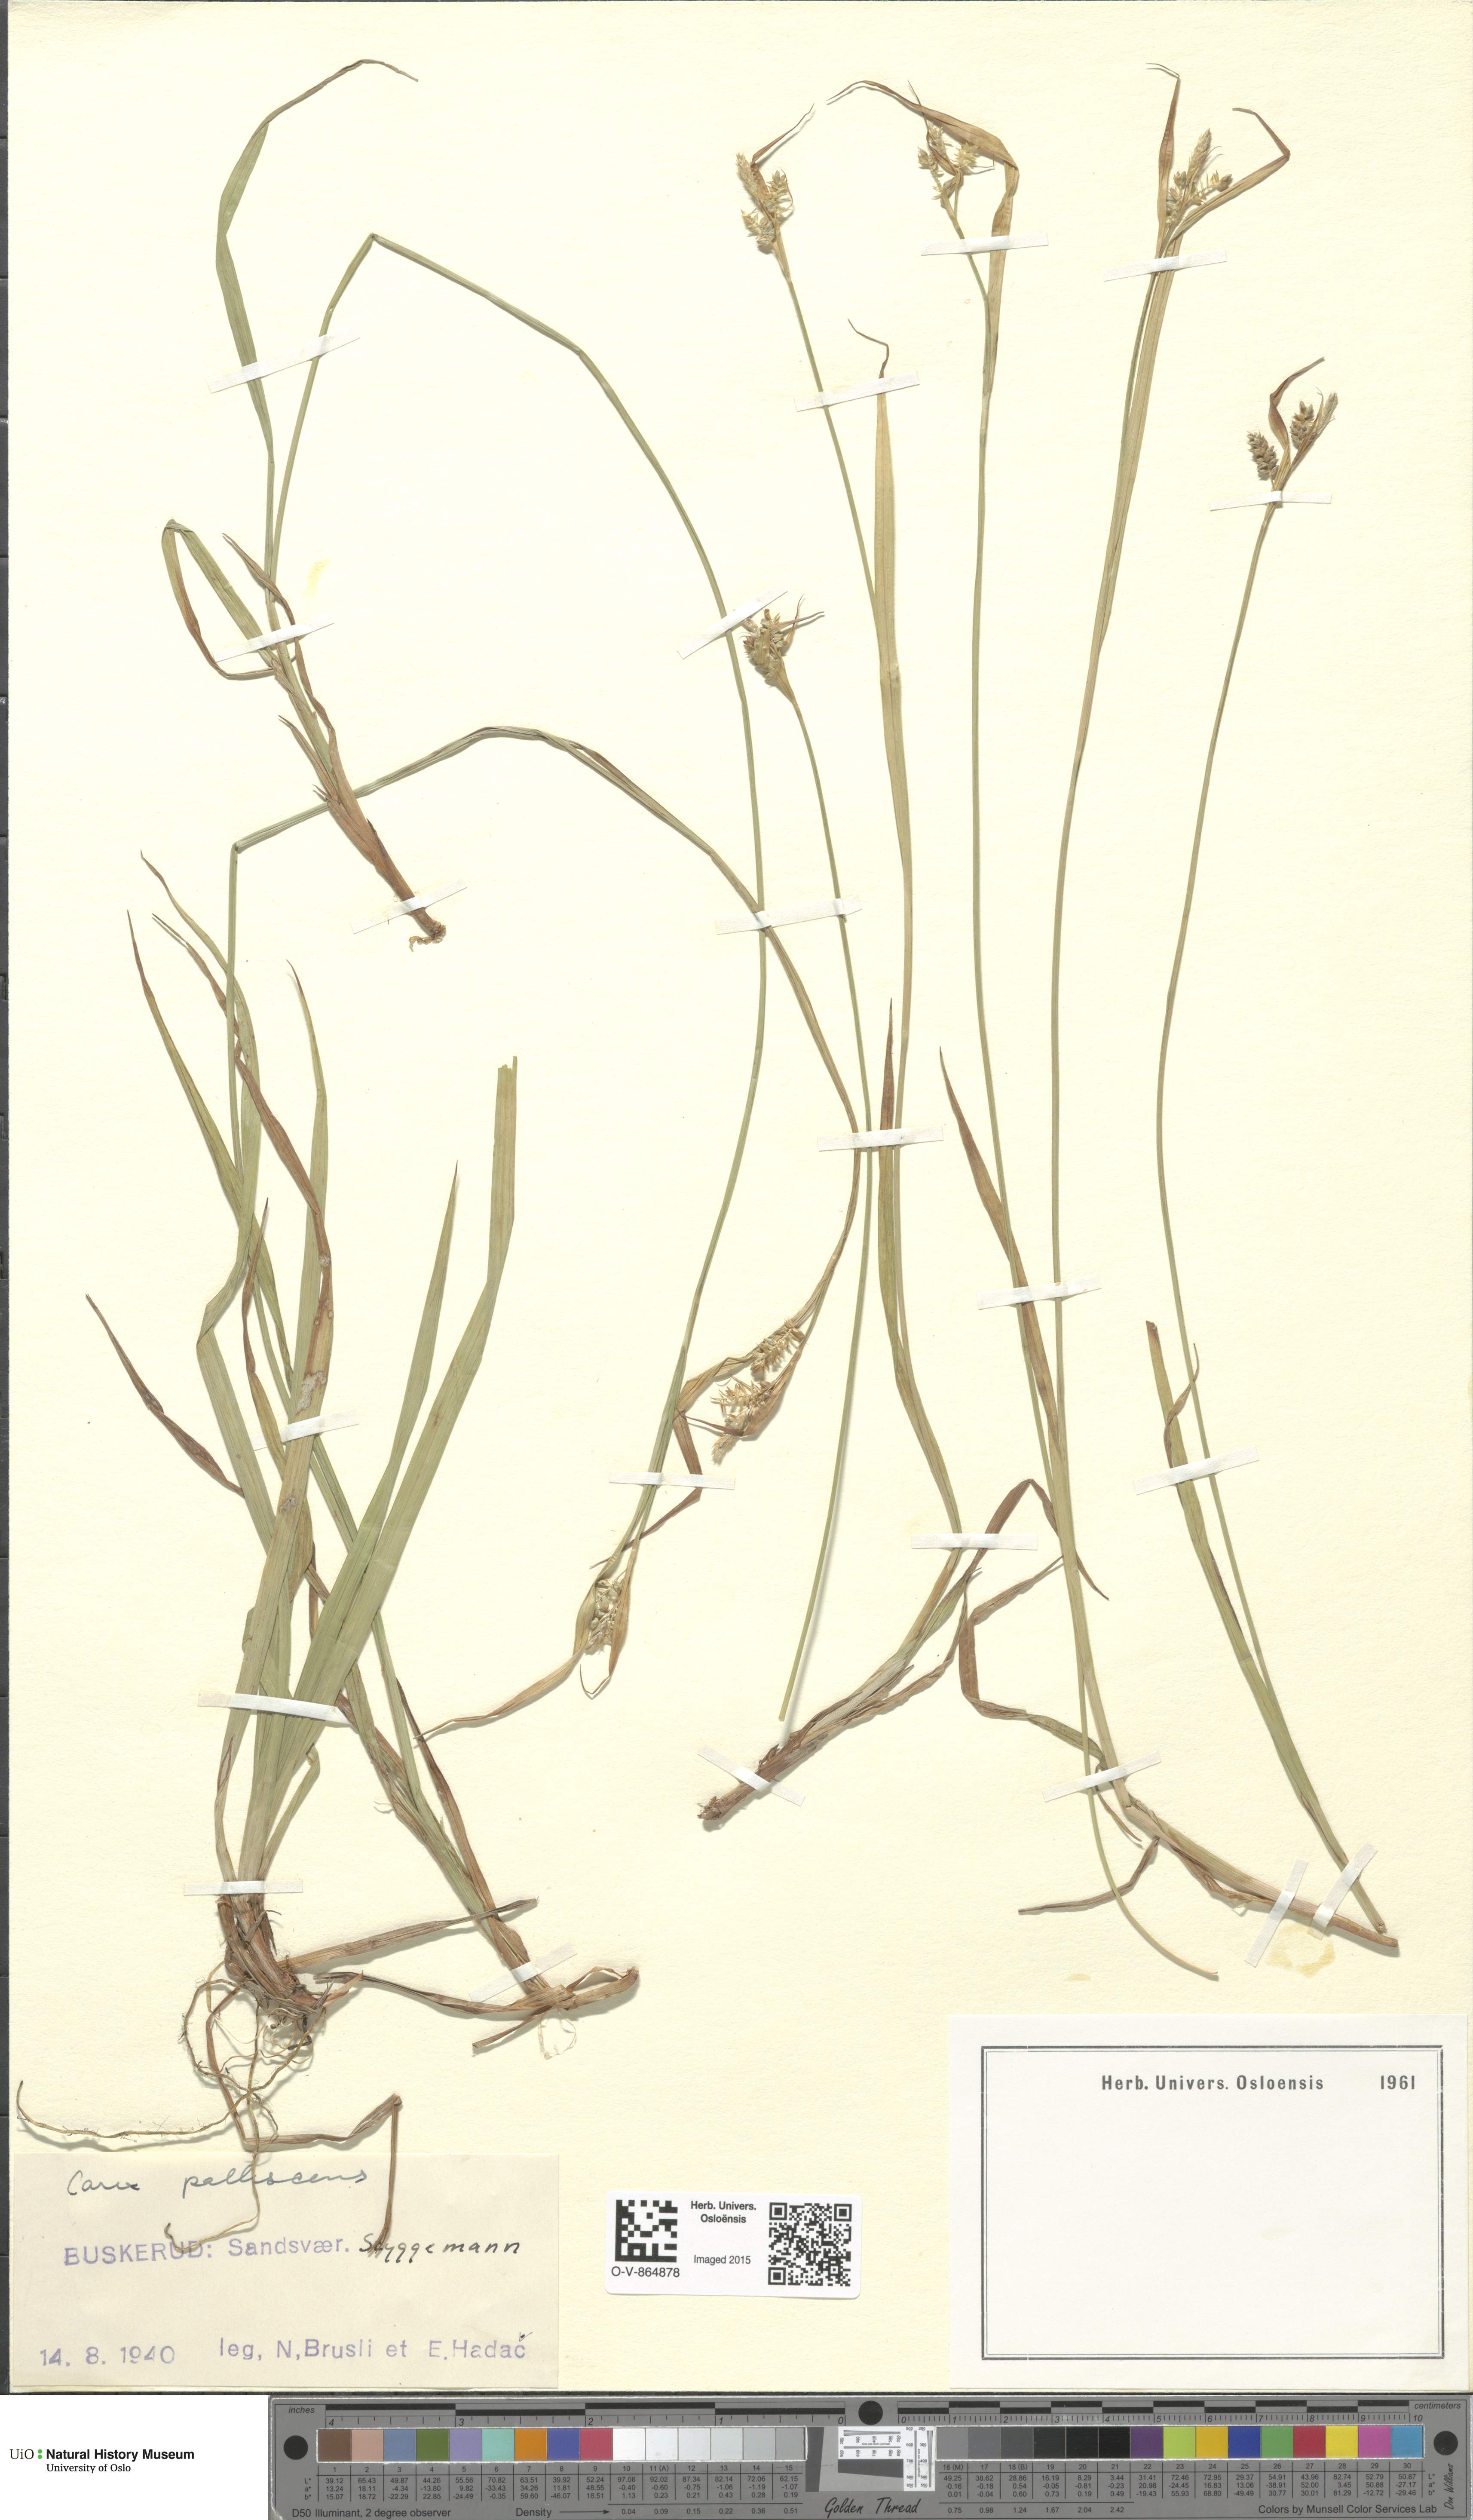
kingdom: Plantae
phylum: Tracheophyta
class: Liliopsida
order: Poales
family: Cyperaceae
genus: Carex
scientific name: Carex pallescens
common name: Pale sedge
